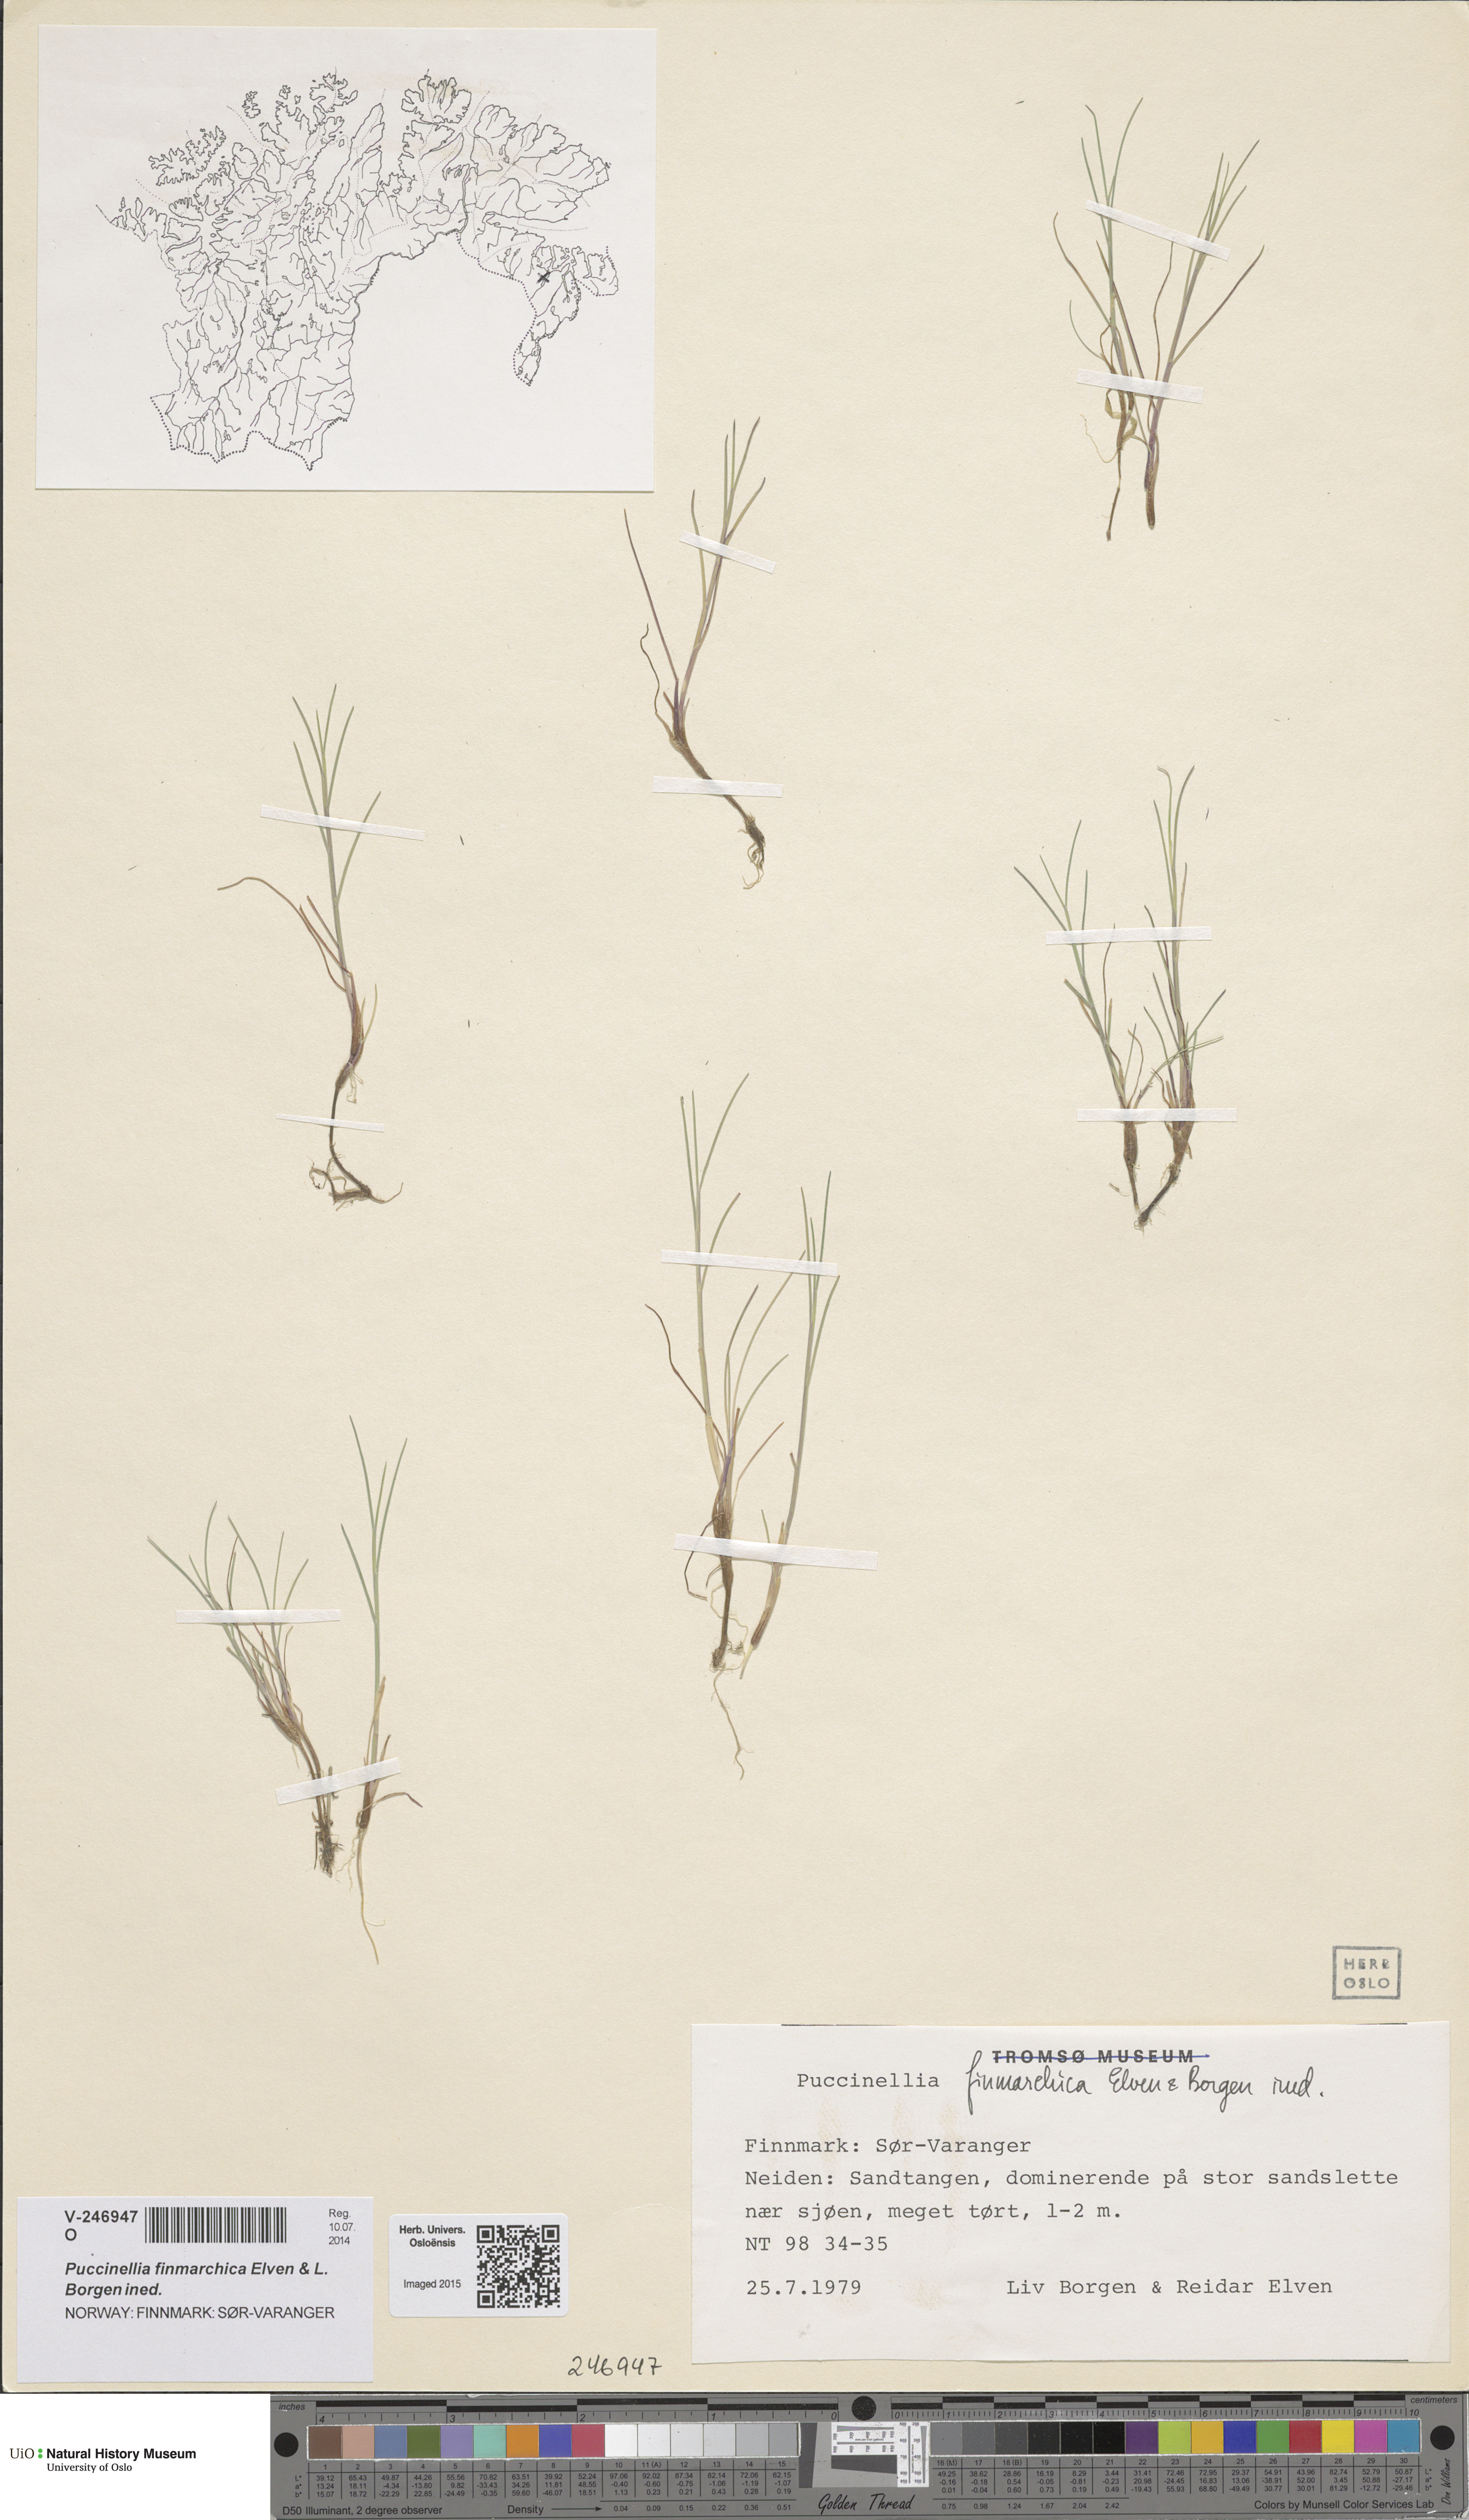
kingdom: Plantae
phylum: Tracheophyta
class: Liliopsida
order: Poales
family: Poaceae
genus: Puccinellia
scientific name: Puccinellia finmarchica
